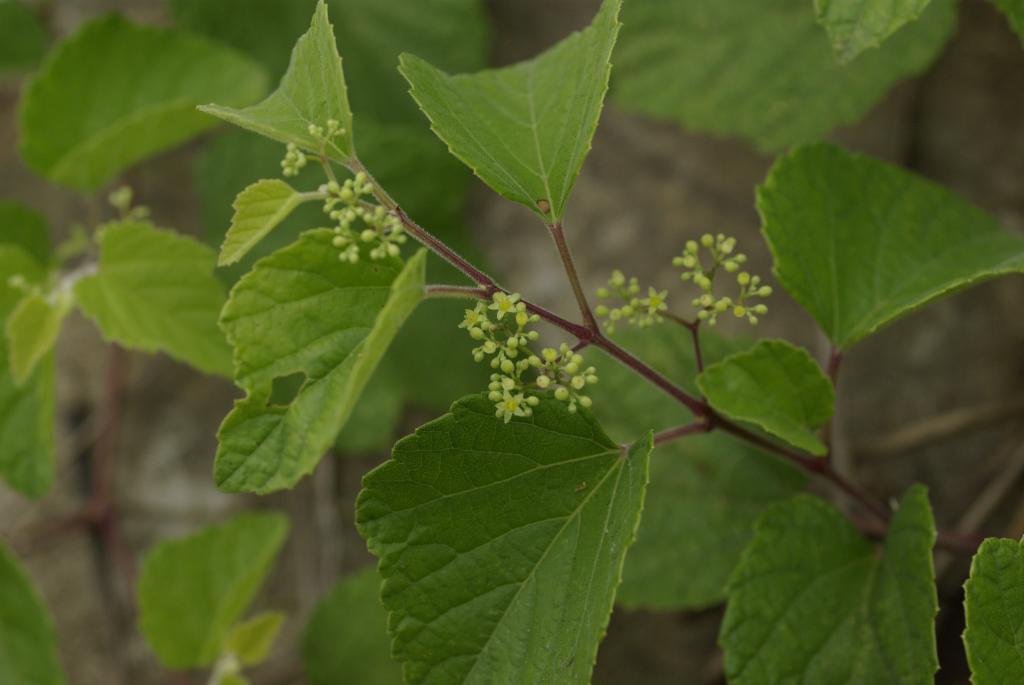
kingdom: Plantae
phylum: Tracheophyta
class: Magnoliopsida
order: Vitales
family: Vitaceae
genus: Ampelopsis
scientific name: Ampelopsis glandulosa
